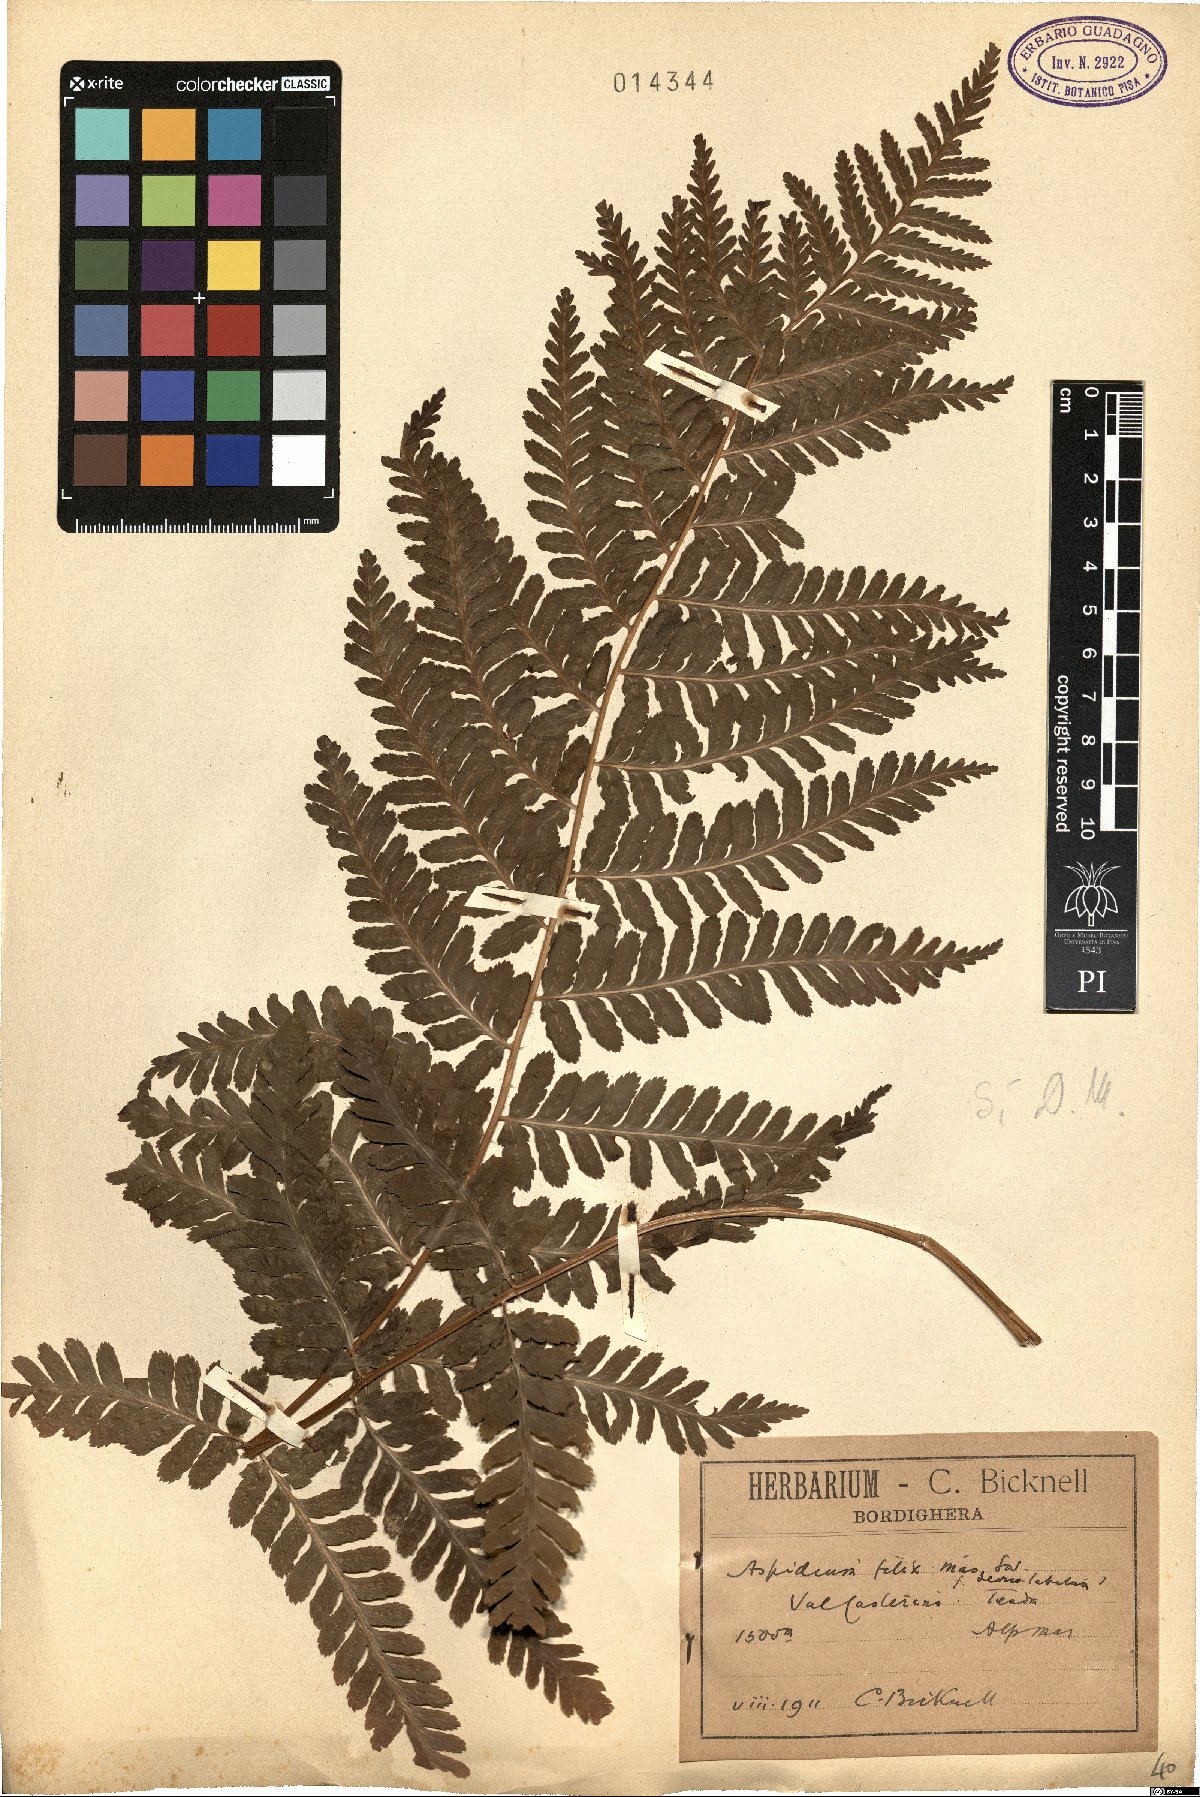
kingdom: Plantae
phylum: Tracheophyta
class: Polypodiopsida
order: Polypodiales
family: Dryopteridaceae
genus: Dryopteris
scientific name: Dryopteris filix-mas
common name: Male fern
